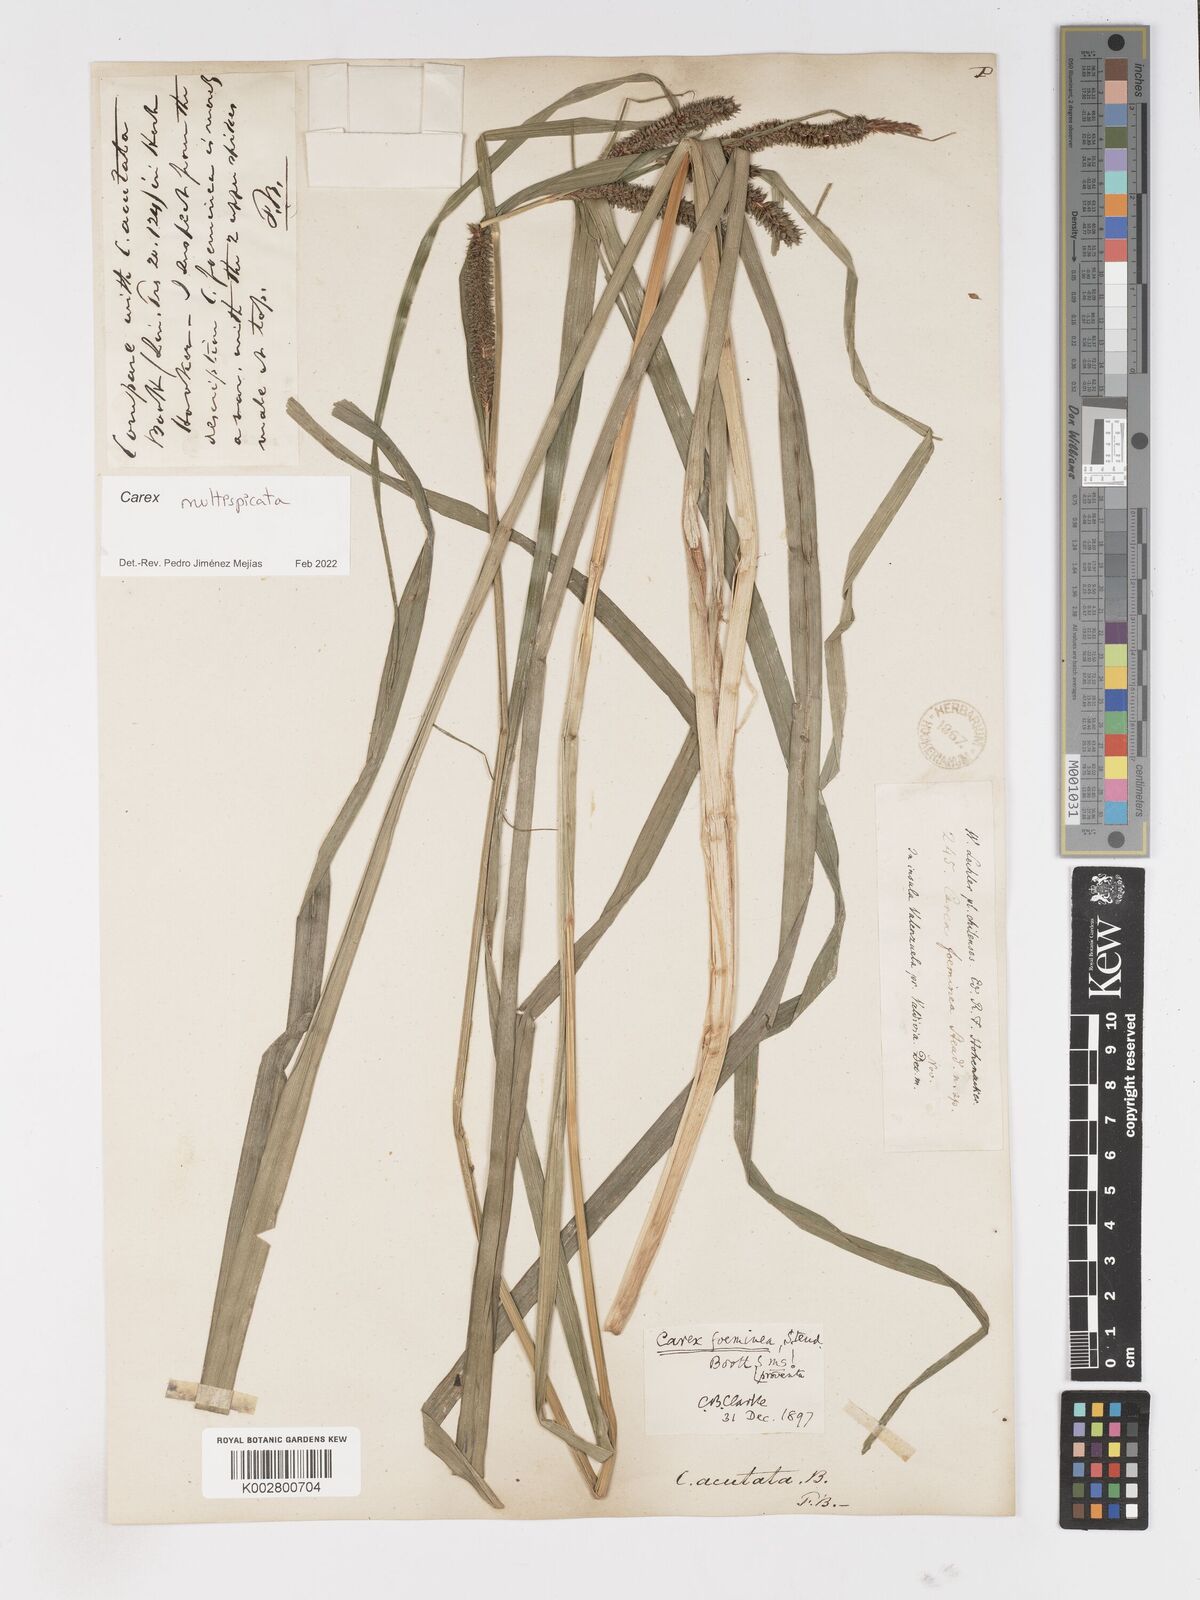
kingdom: Plantae
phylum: Tracheophyta
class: Liliopsida
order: Poales
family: Cyperaceae
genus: Carex
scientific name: Carex multispicata
